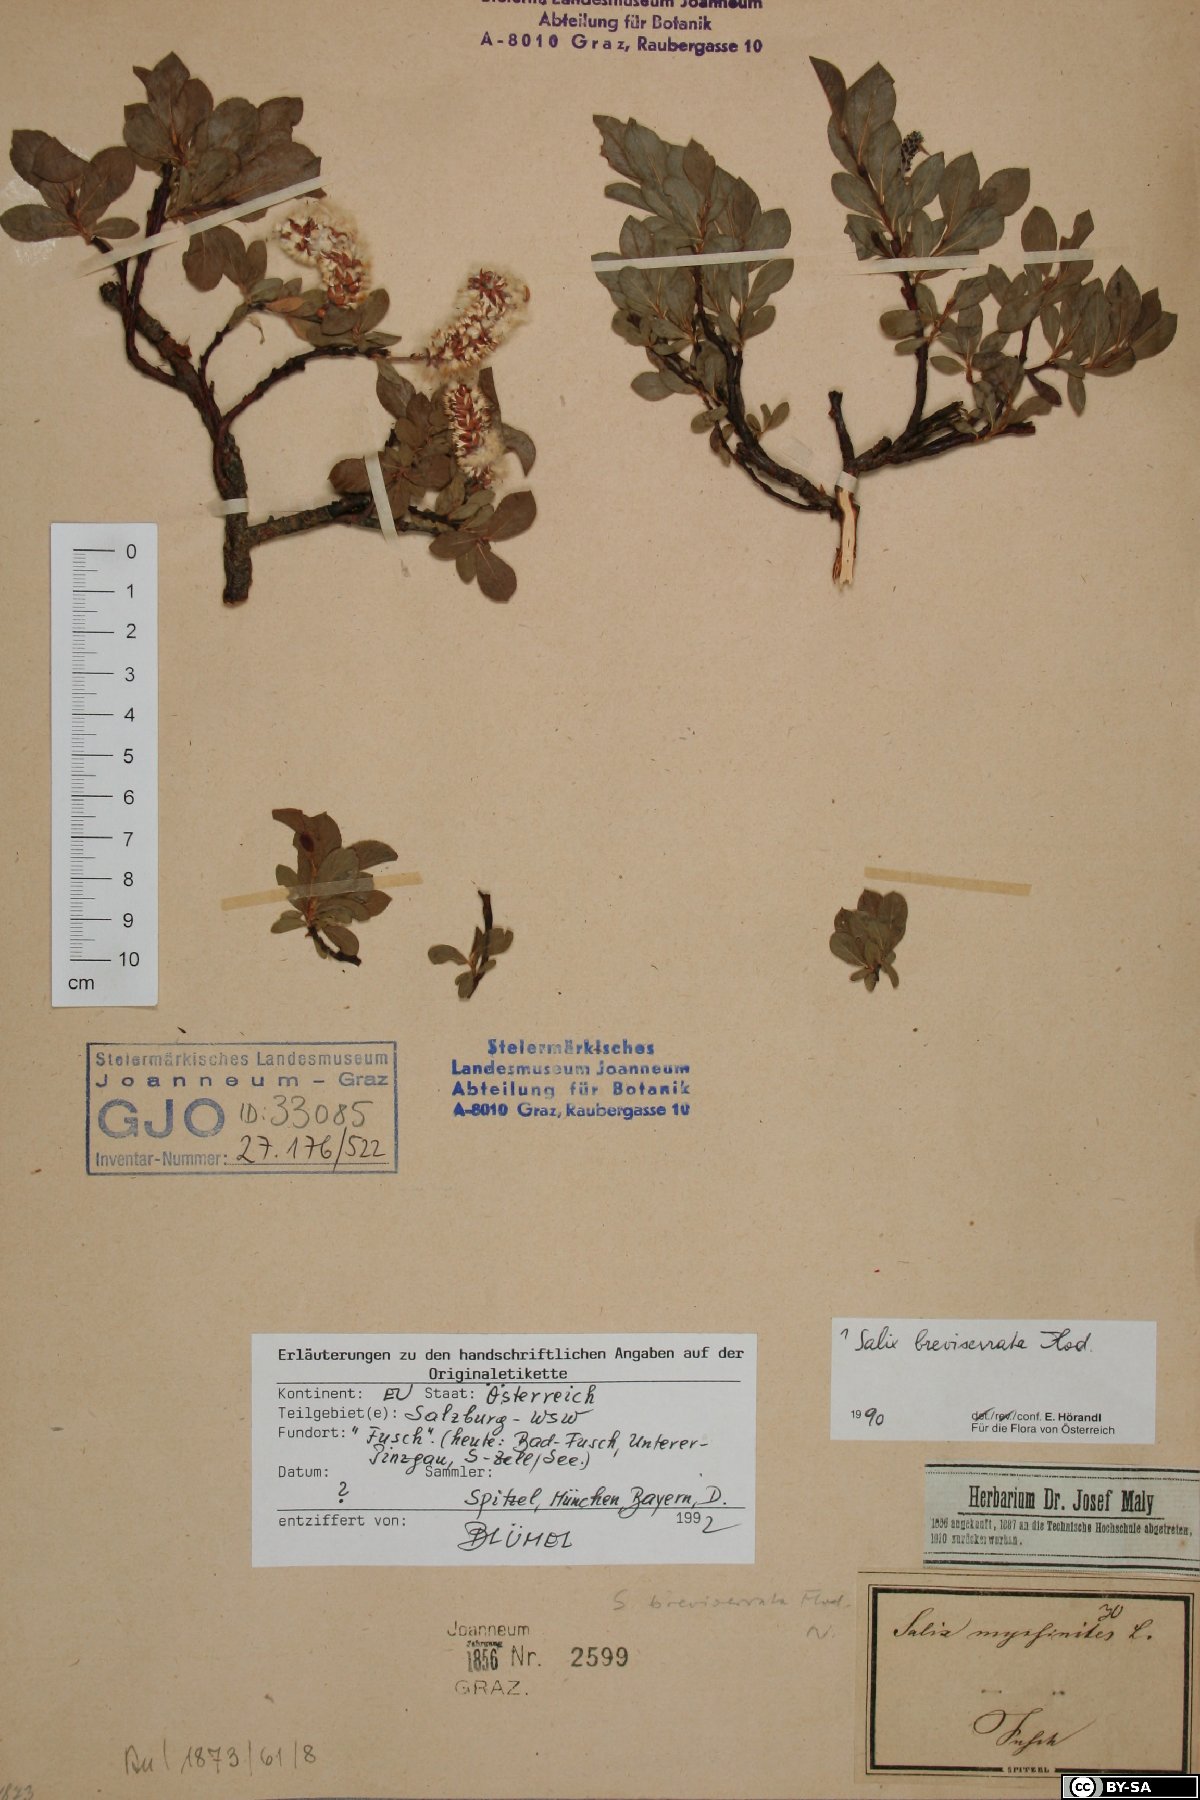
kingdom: Plantae
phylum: Tracheophyta
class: Magnoliopsida
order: Malpighiales
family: Salicaceae
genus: Salix
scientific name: Salix breviserrata
